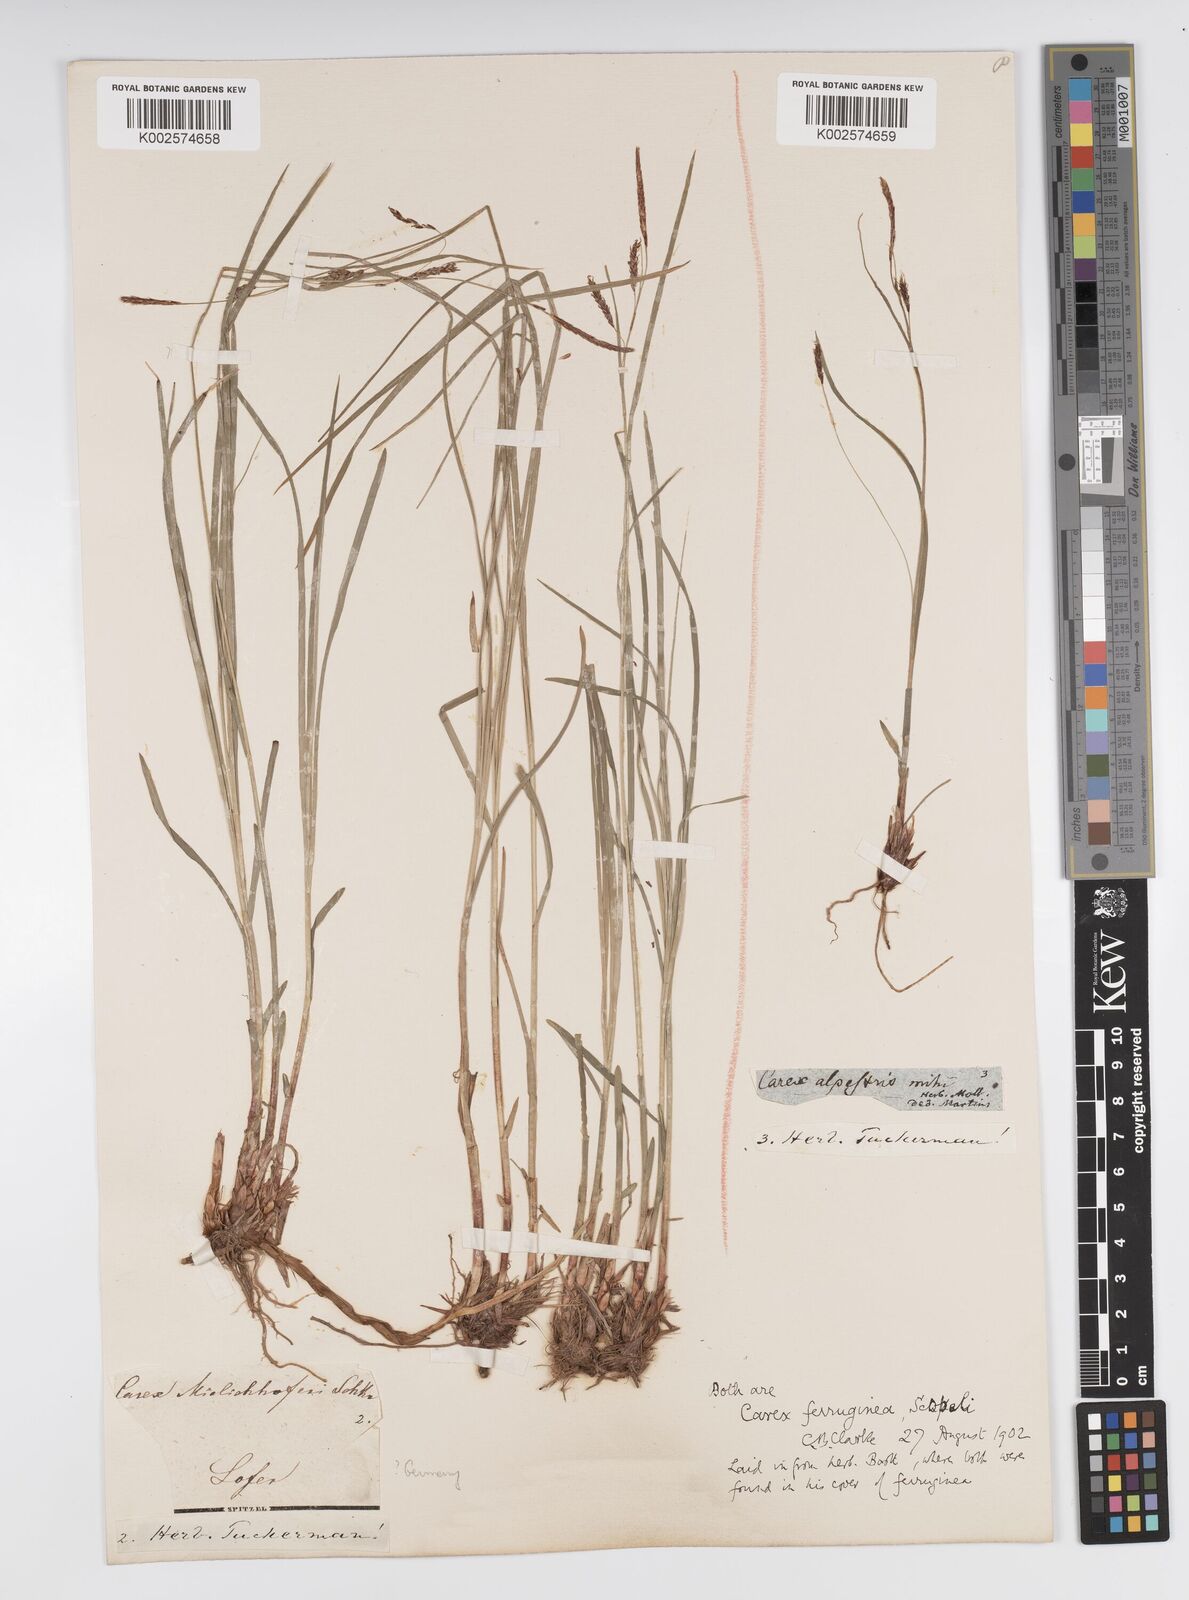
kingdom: Plantae
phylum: Tracheophyta
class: Liliopsida
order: Poales
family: Cyperaceae
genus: Carex
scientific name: Carex ferruginea
